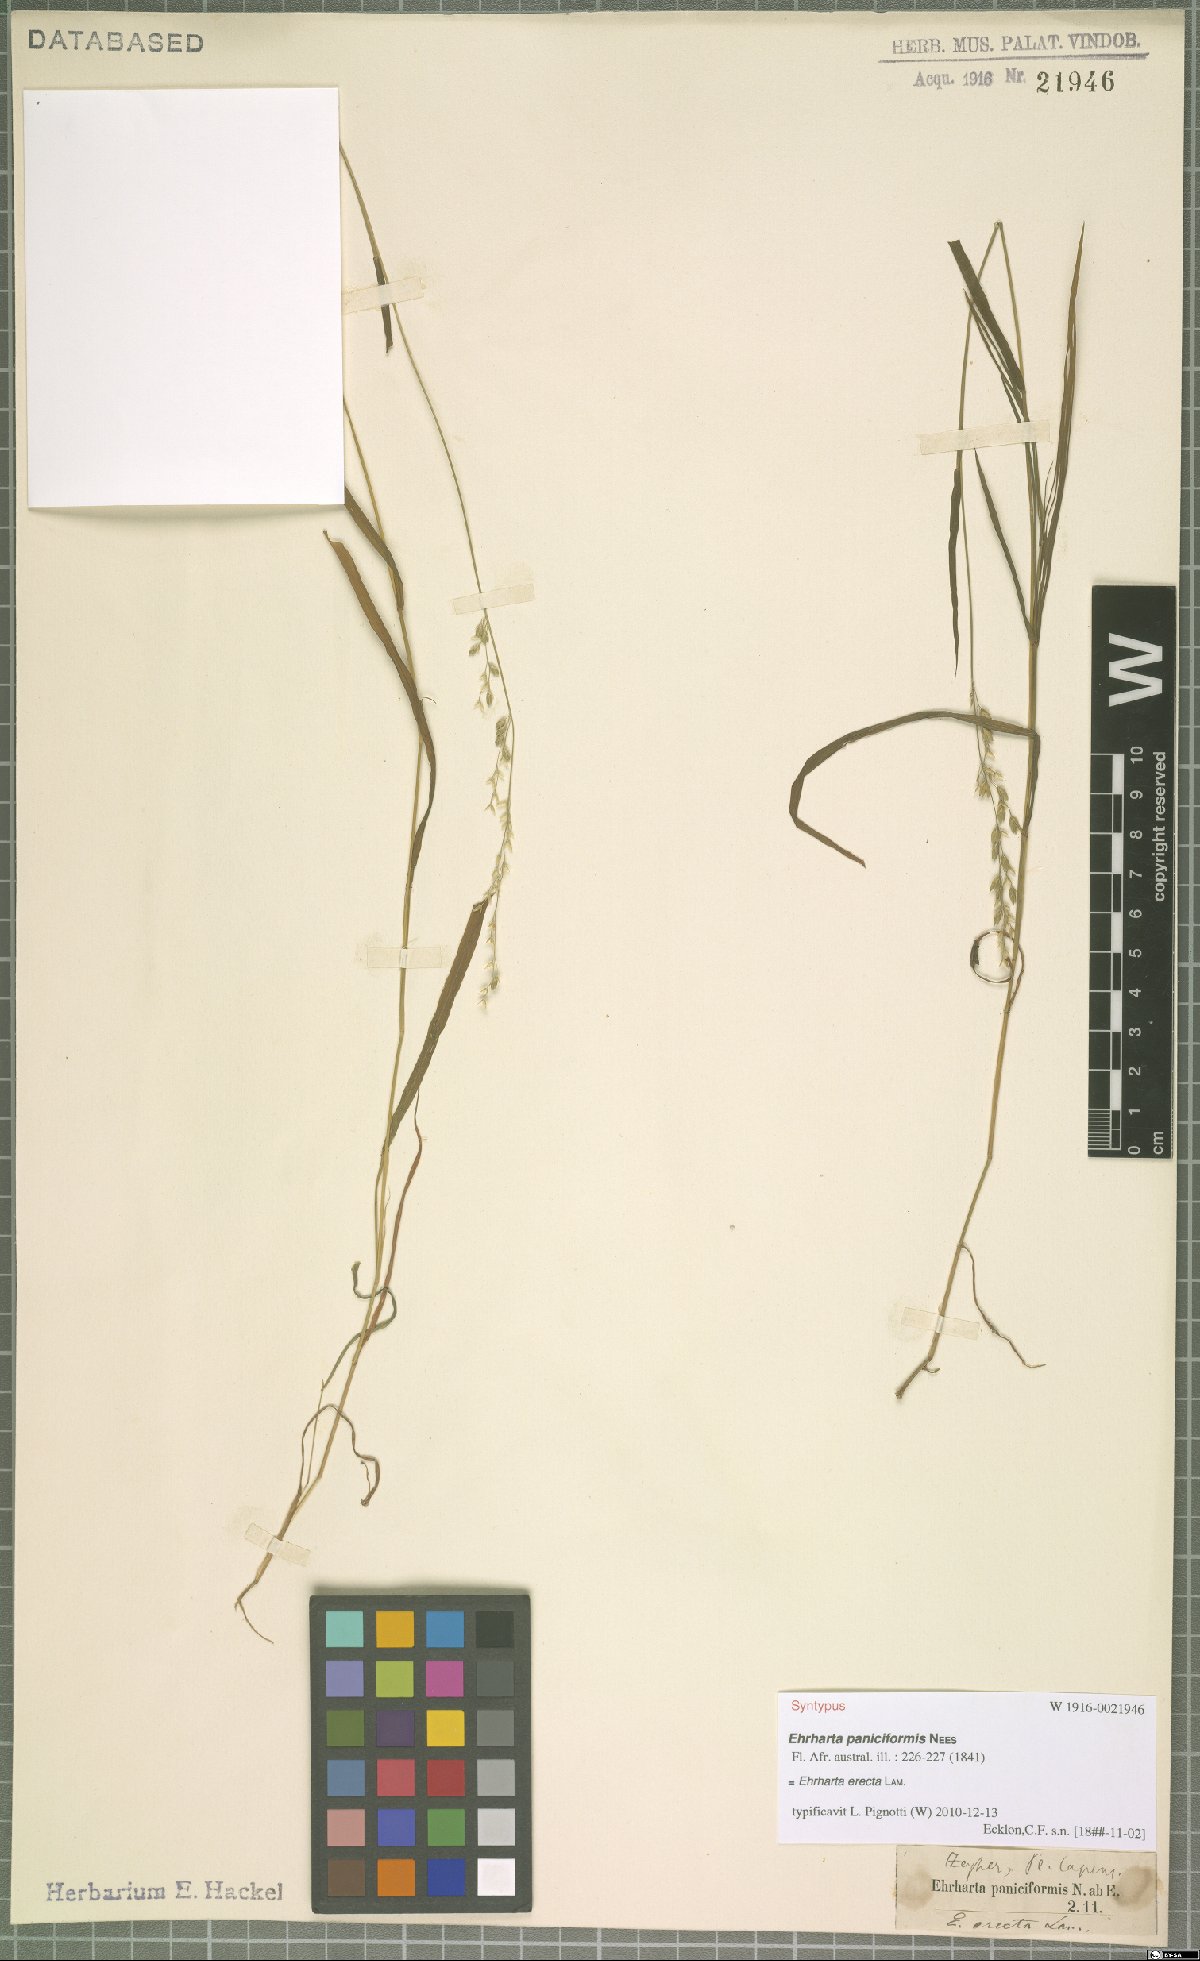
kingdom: Plantae
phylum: Tracheophyta
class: Liliopsida
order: Poales
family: Poaceae
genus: Ehrharta
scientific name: Ehrharta erecta
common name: Panic veldtgrass
